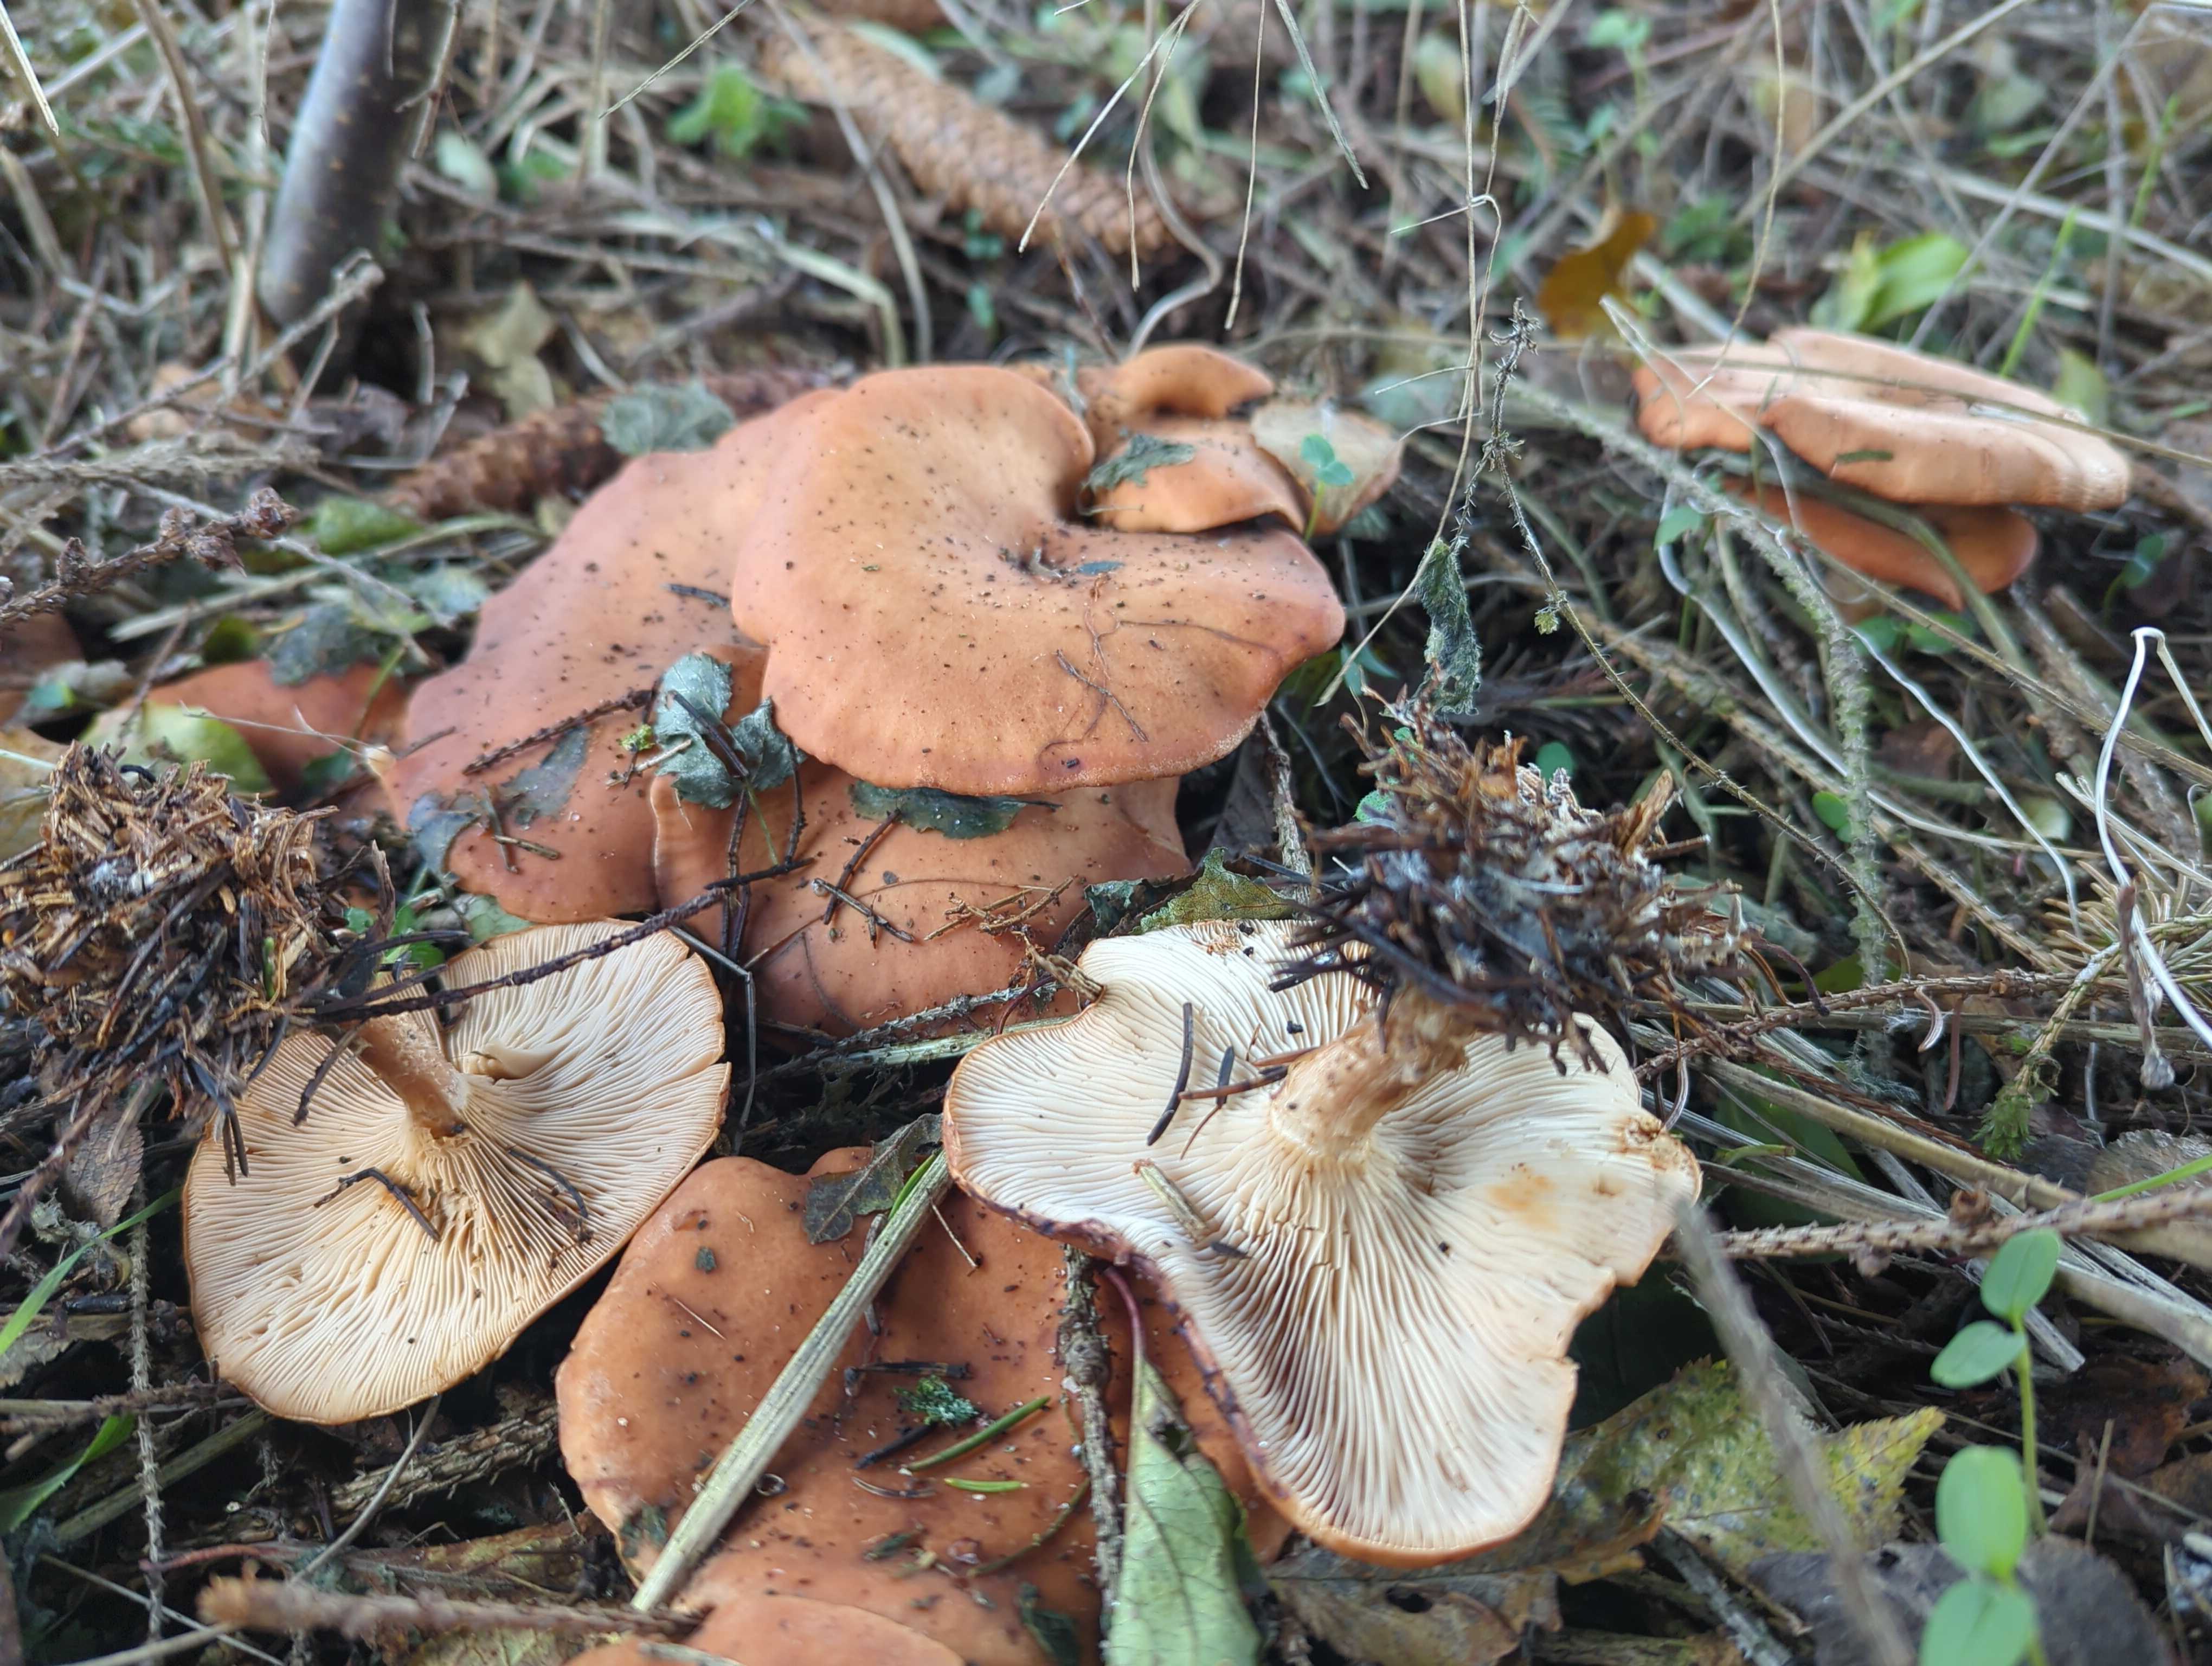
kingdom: Fungi
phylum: Basidiomycota
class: Agaricomycetes
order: Agaricales
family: Tricholomataceae
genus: Paralepista
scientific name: Paralepista flaccida
